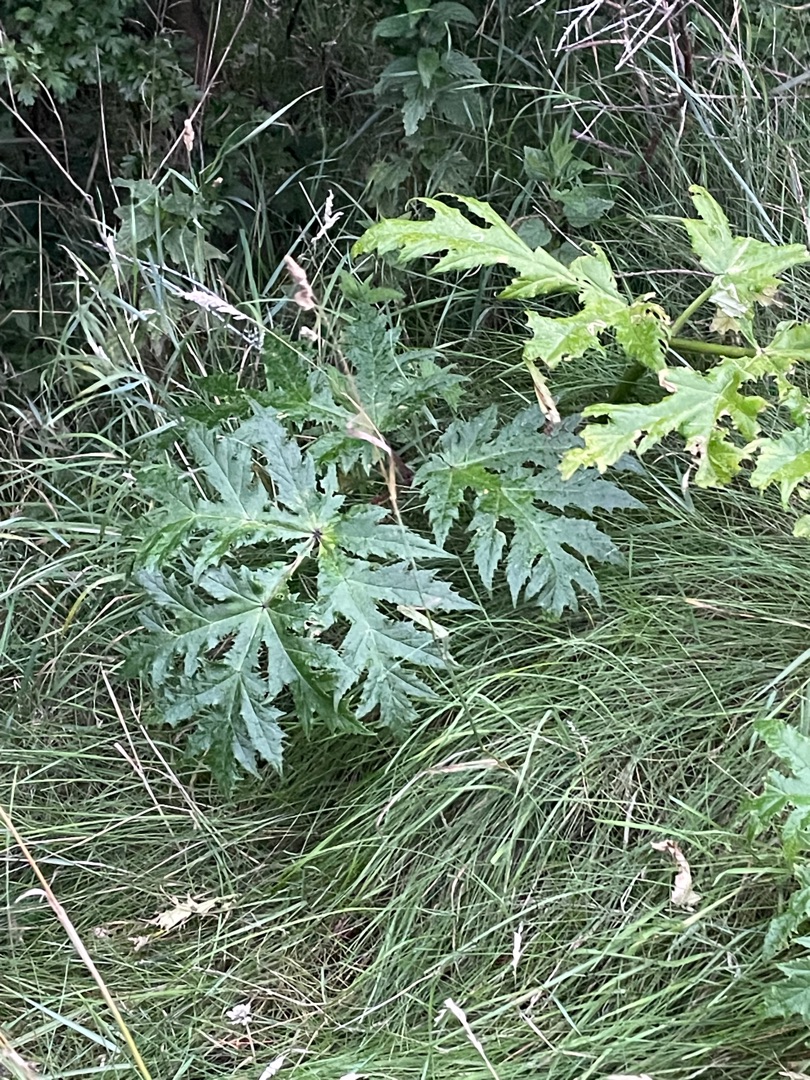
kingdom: Plantae
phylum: Tracheophyta
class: Magnoliopsida
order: Apiales
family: Apiaceae
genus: Heracleum
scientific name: Heracleum mantegazzianum
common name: Kæmpe-bjørneklo
